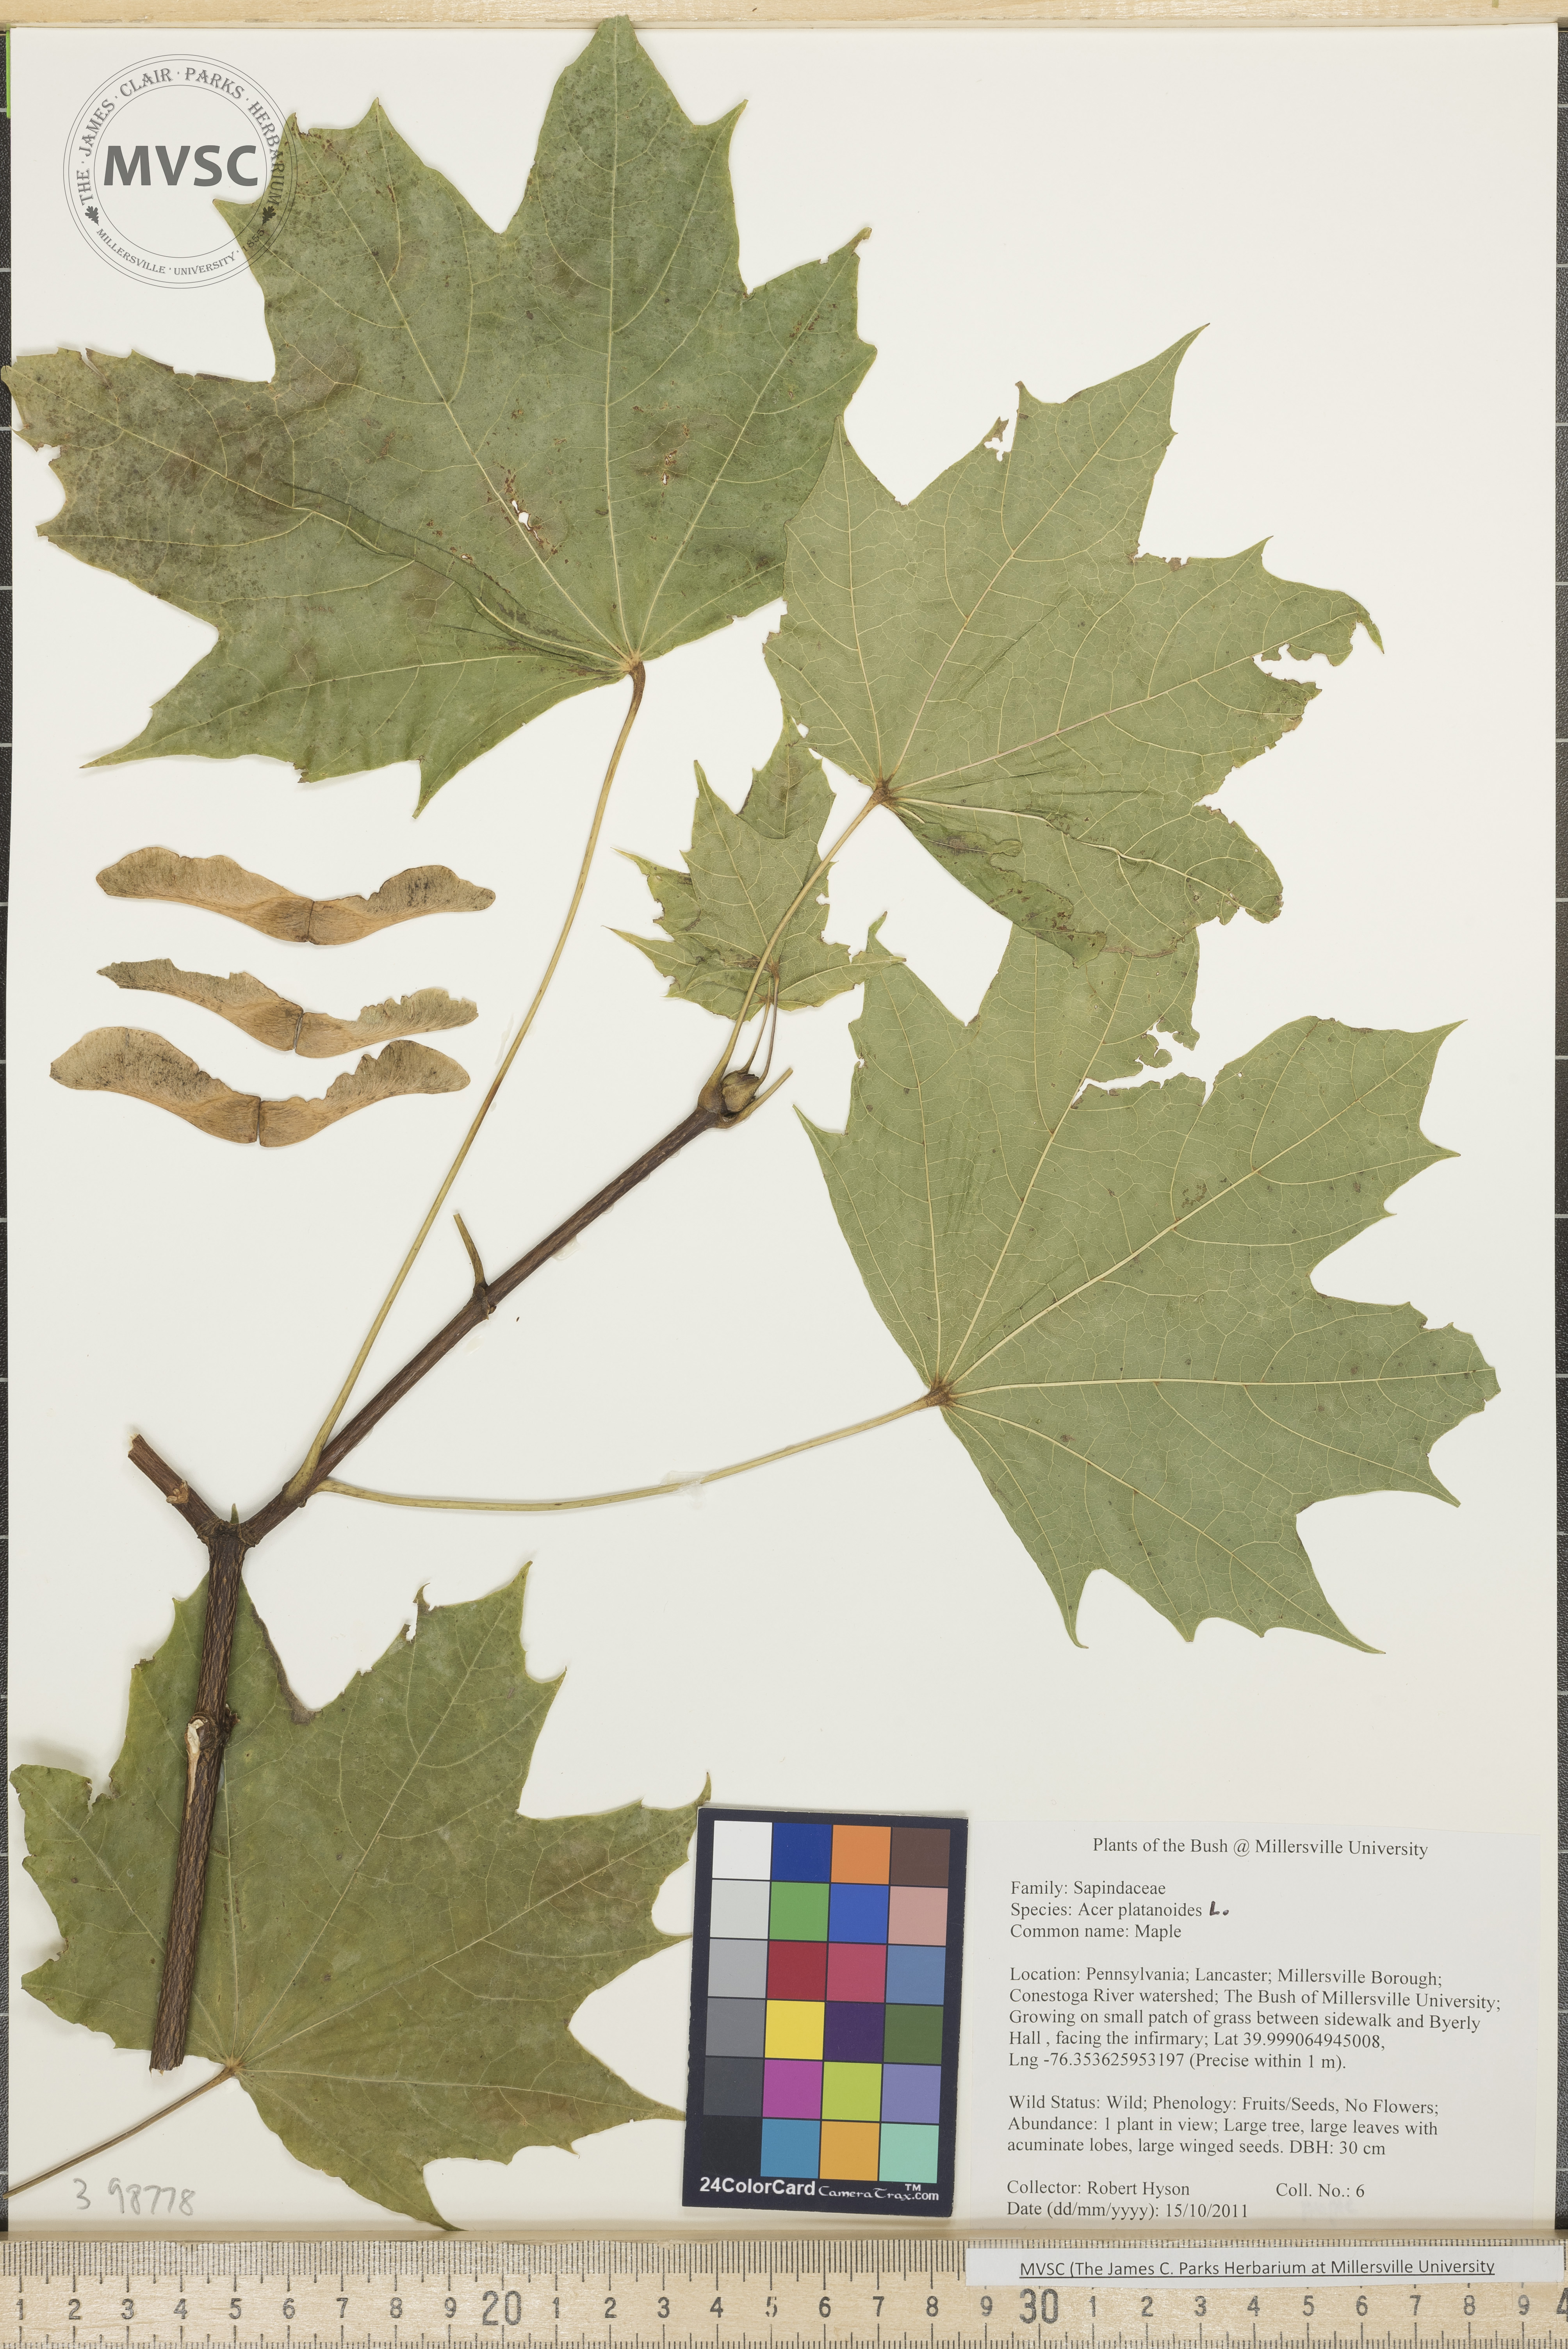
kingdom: Plantae
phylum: Tracheophyta
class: Magnoliopsida
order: Sapindales
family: Sapindaceae
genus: Acer
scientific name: Acer platanoides
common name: Norway maple
